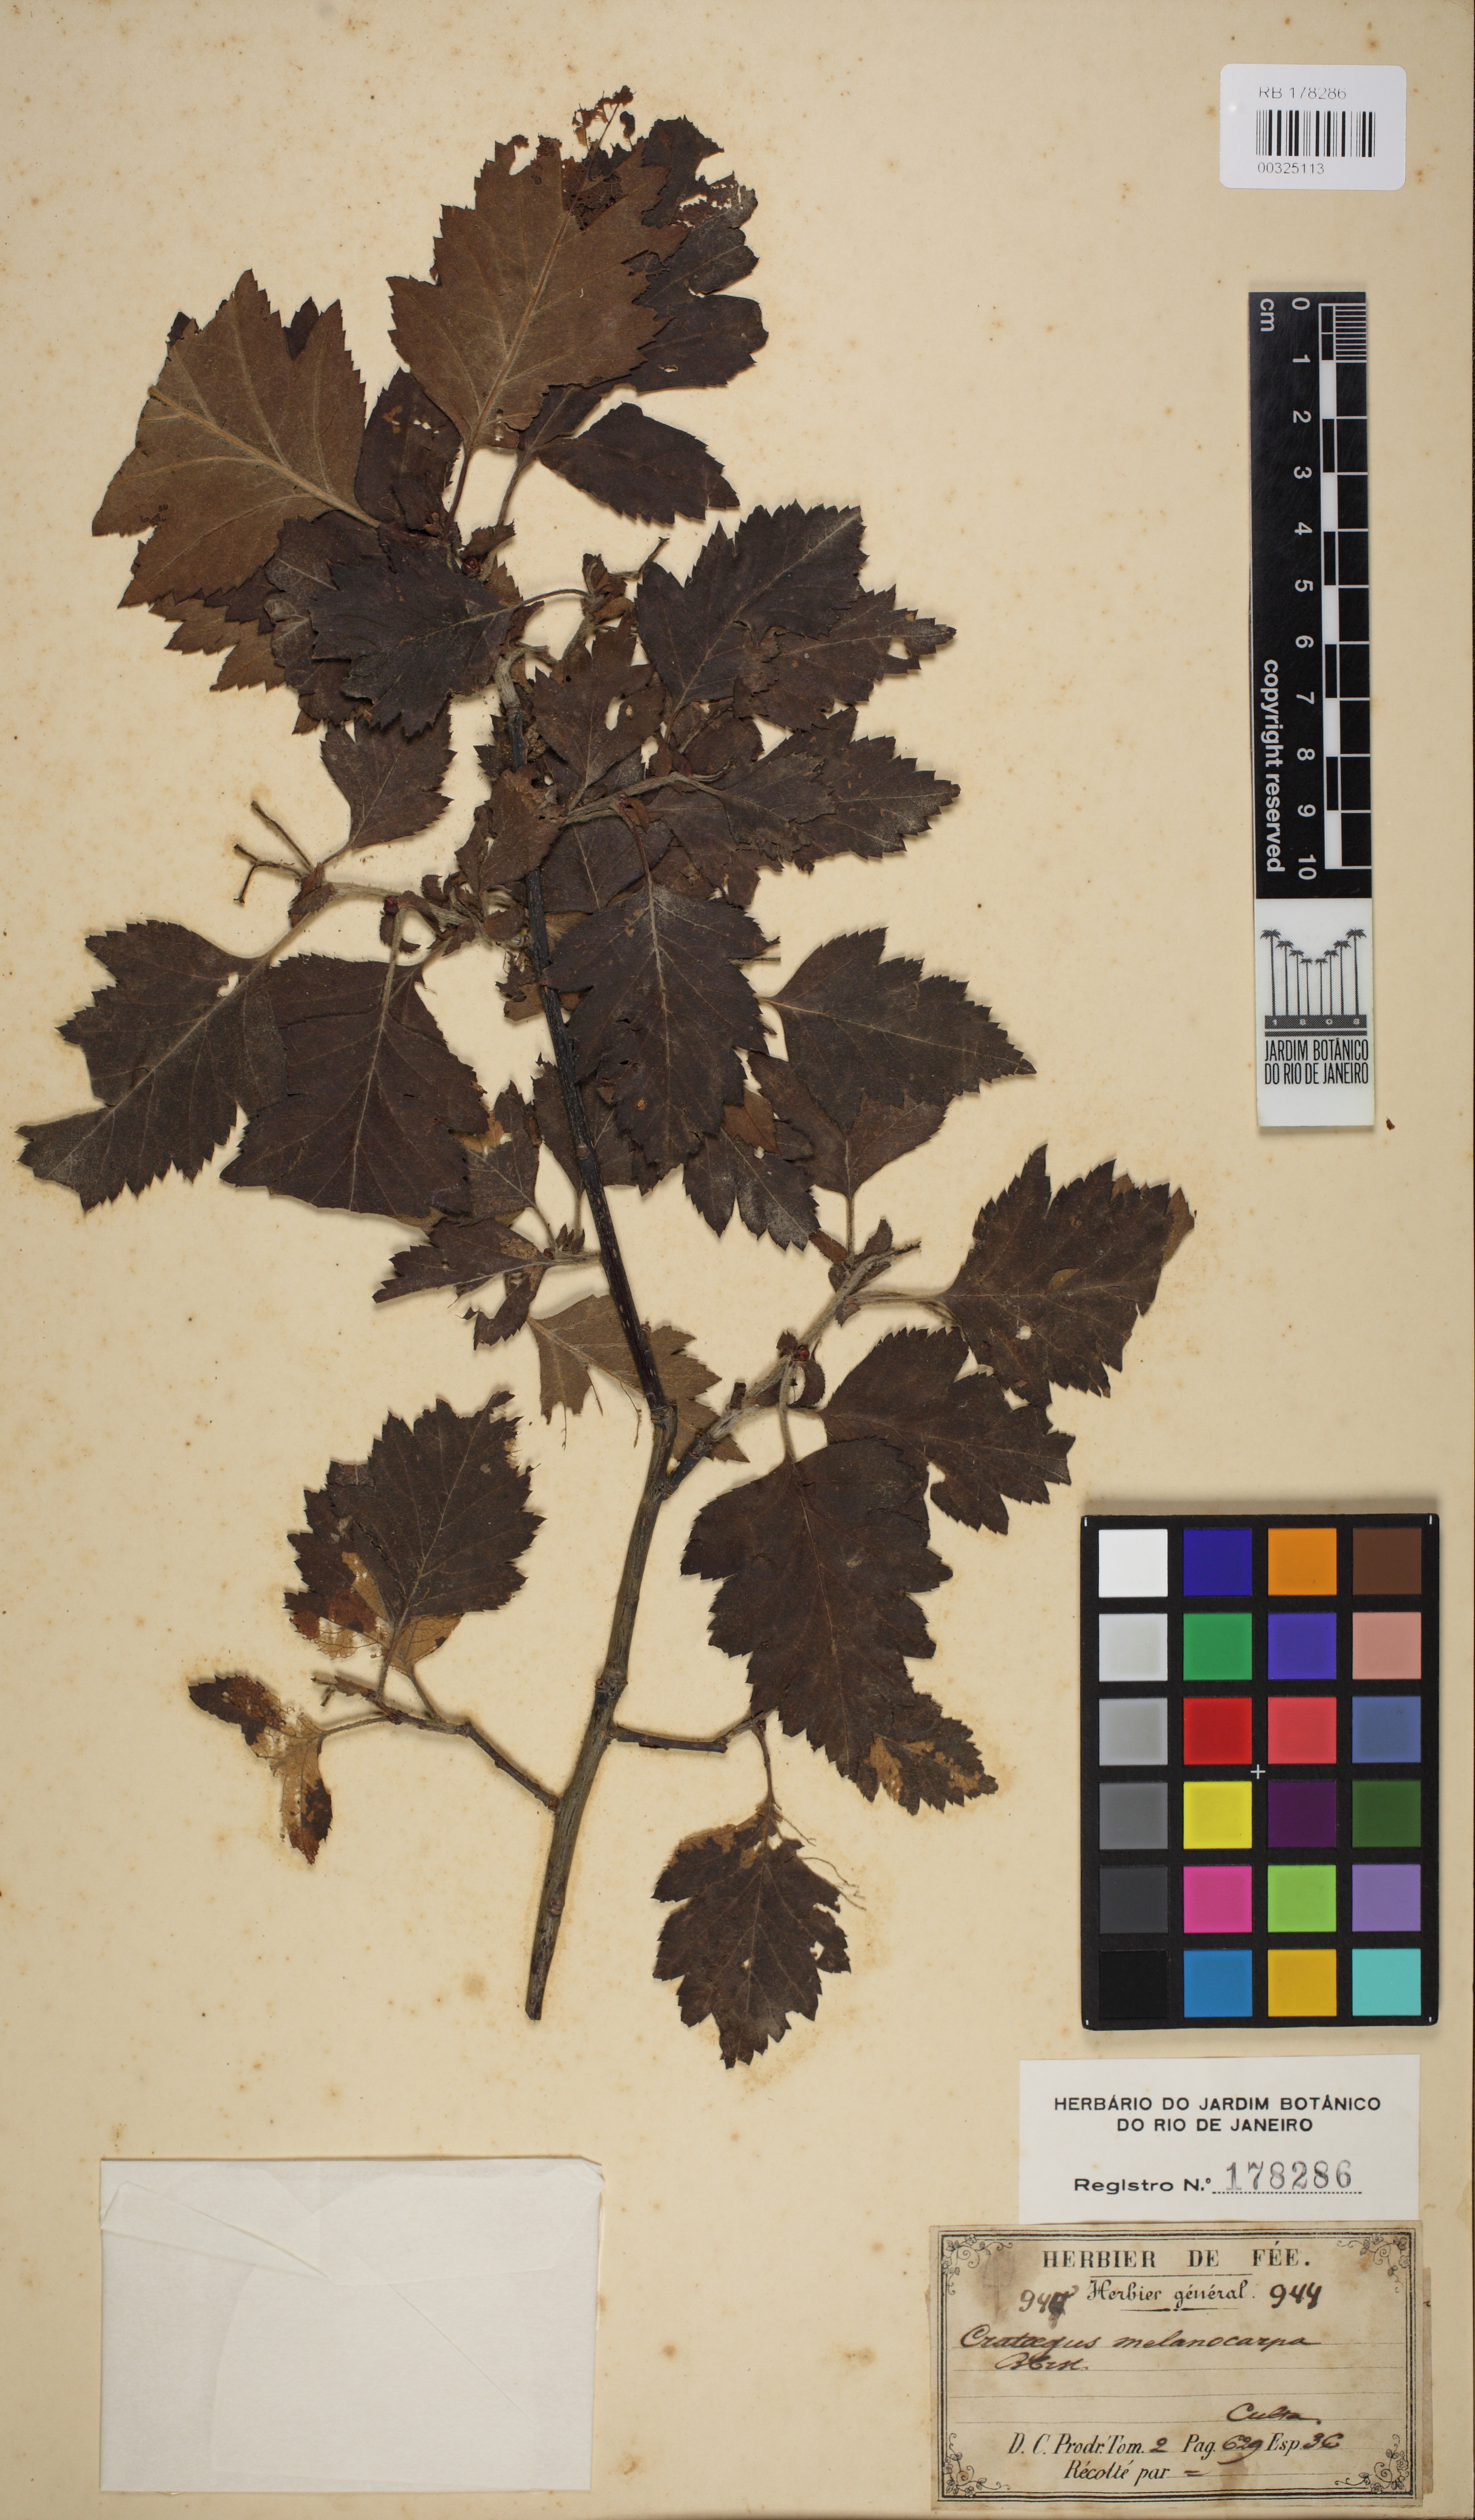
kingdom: Plantae
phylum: Tracheophyta
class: Magnoliopsida
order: Rosales
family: Rosaceae
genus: Crataegus
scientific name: Crataegus heldreichii
